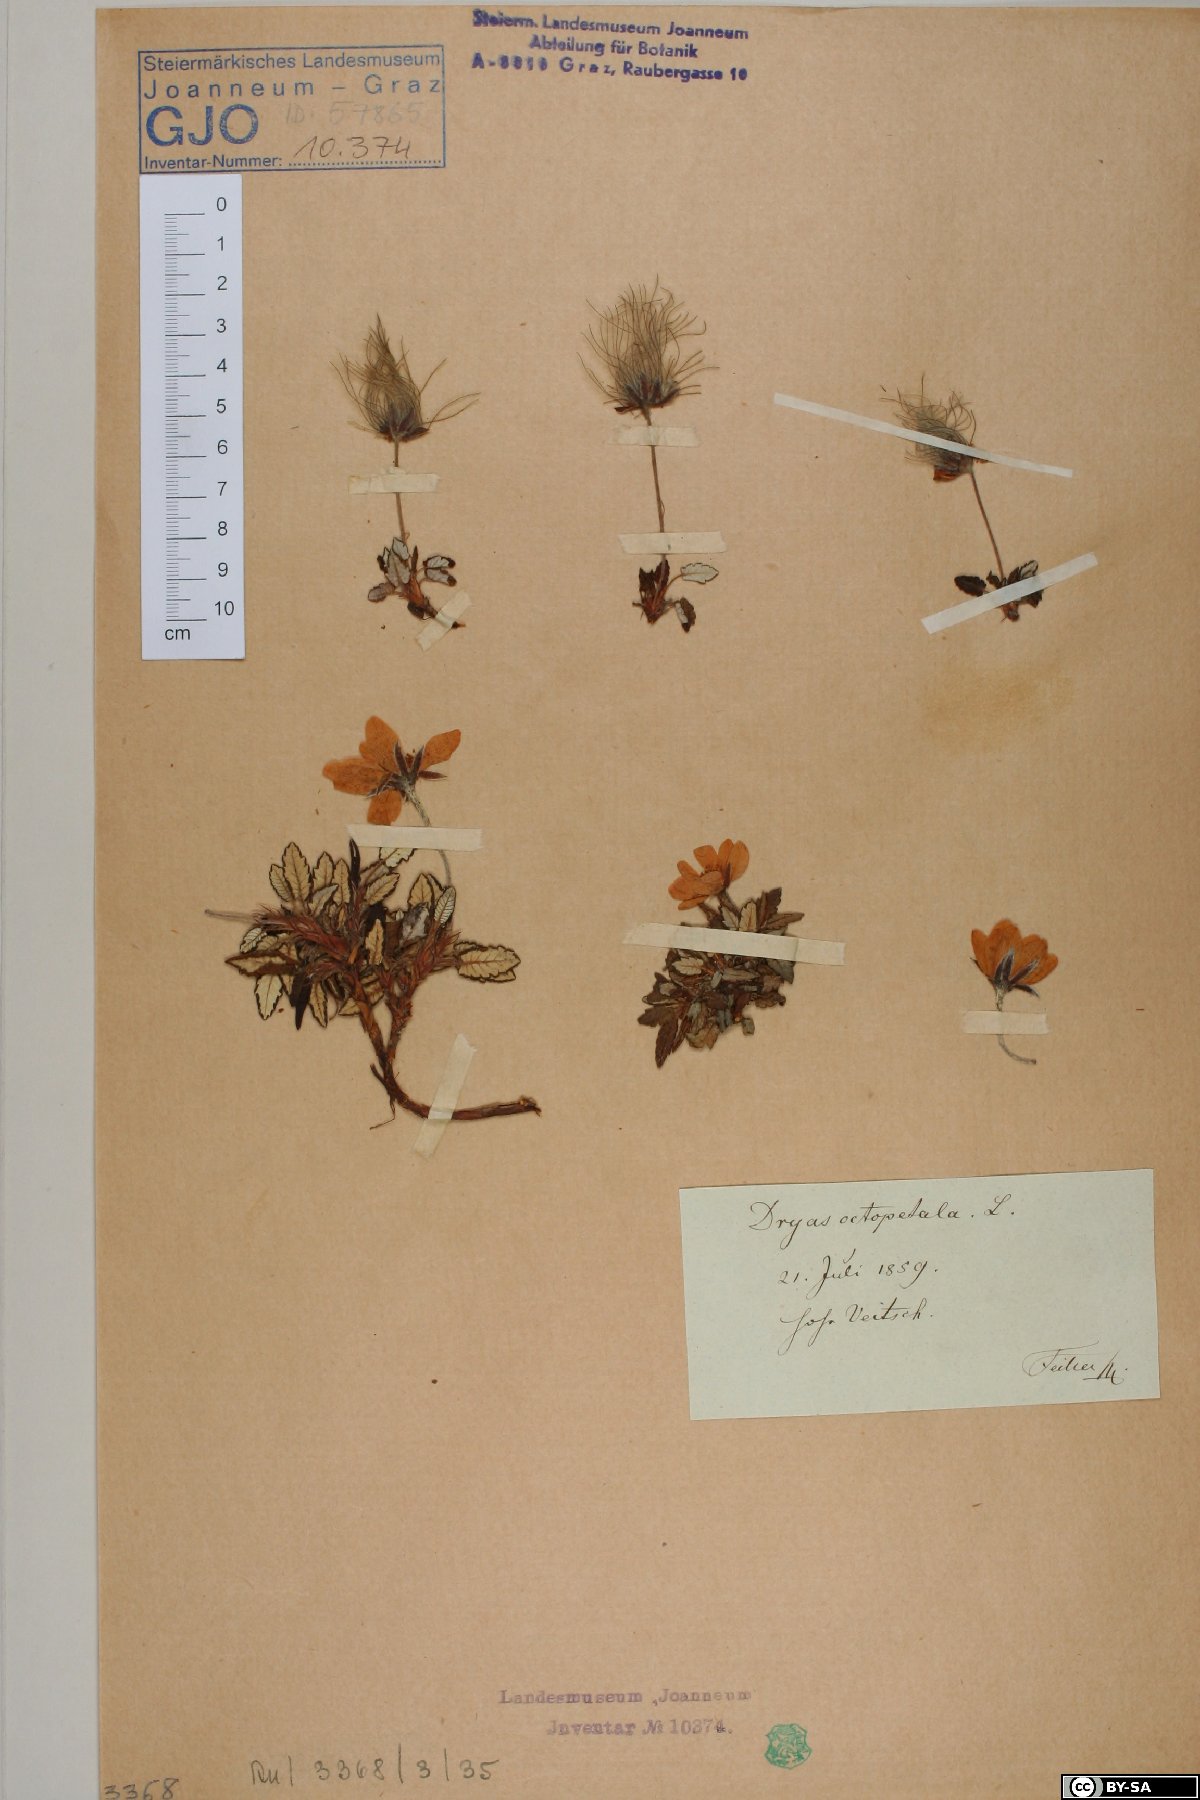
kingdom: Plantae
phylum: Tracheophyta
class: Magnoliopsida
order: Rosales
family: Rosaceae
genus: Dryas
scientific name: Dryas octopetala
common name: Eight-petal mountain-avens
